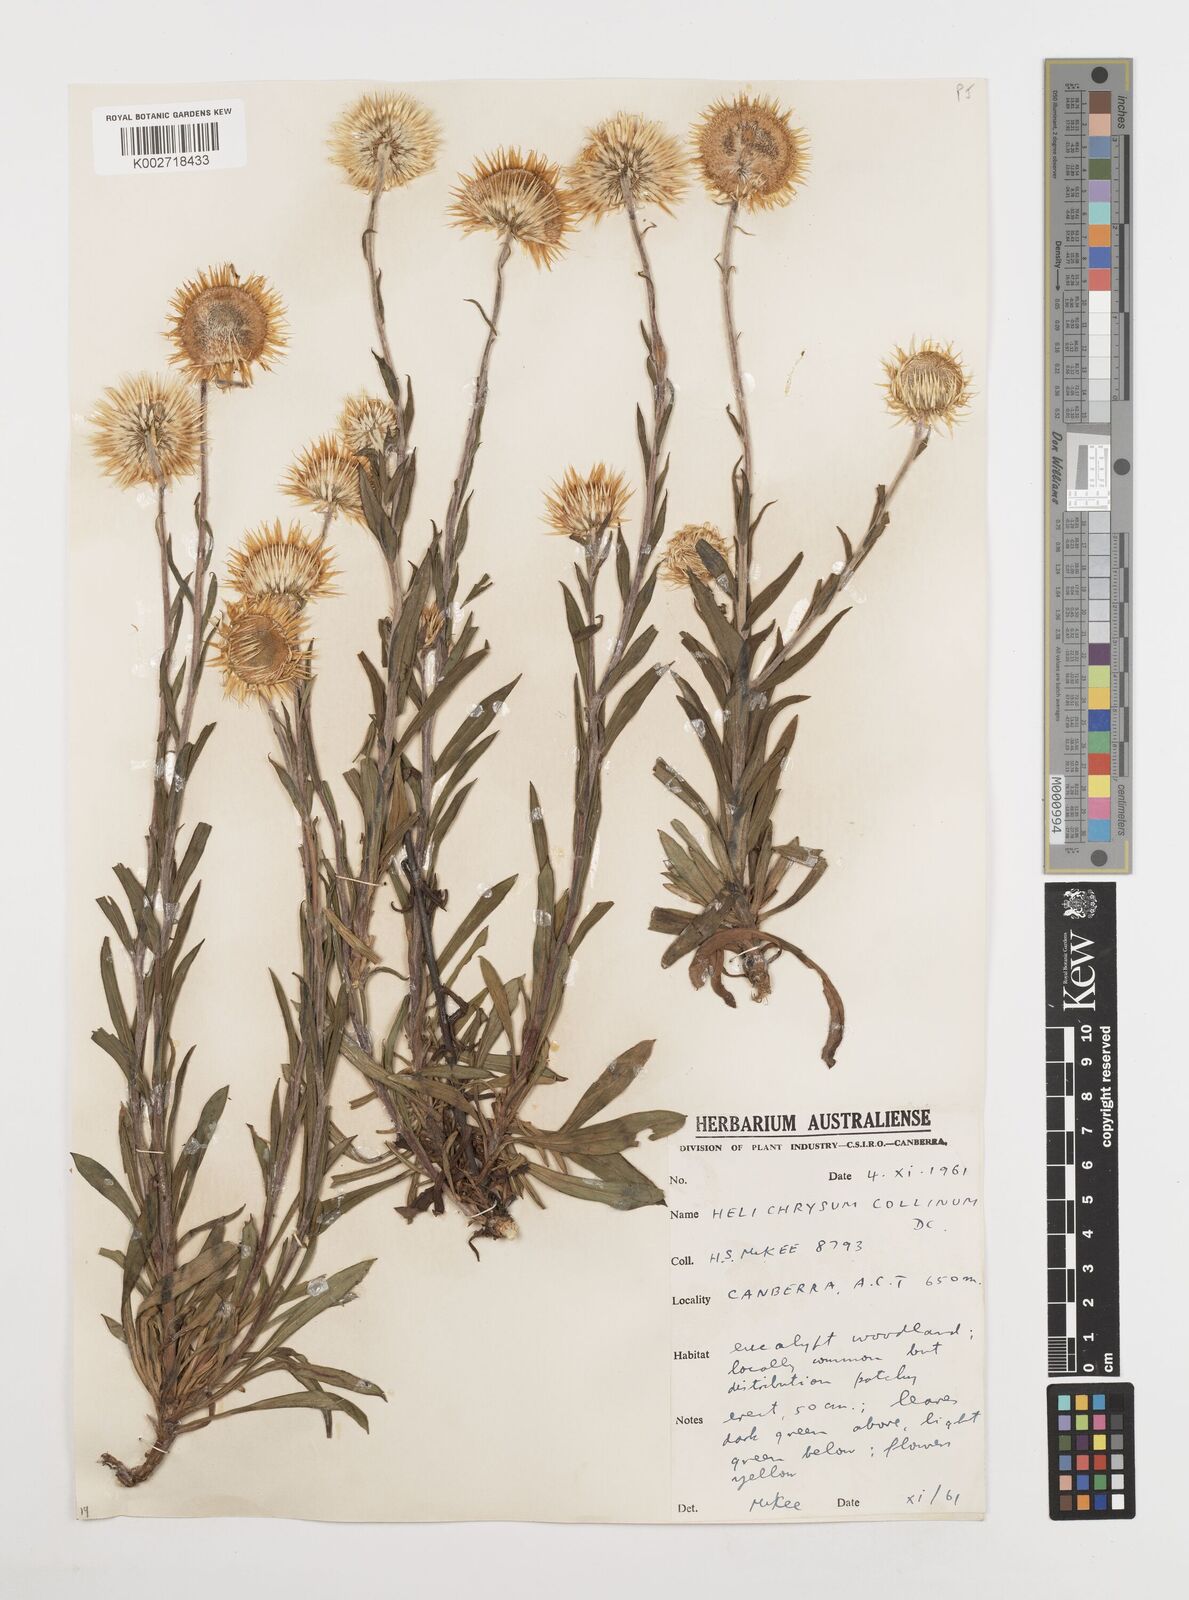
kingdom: Plantae
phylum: Tracheophyta
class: Magnoliopsida
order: Asterales
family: Asteraceae
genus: Coronidium
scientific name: Coronidium rupicola
